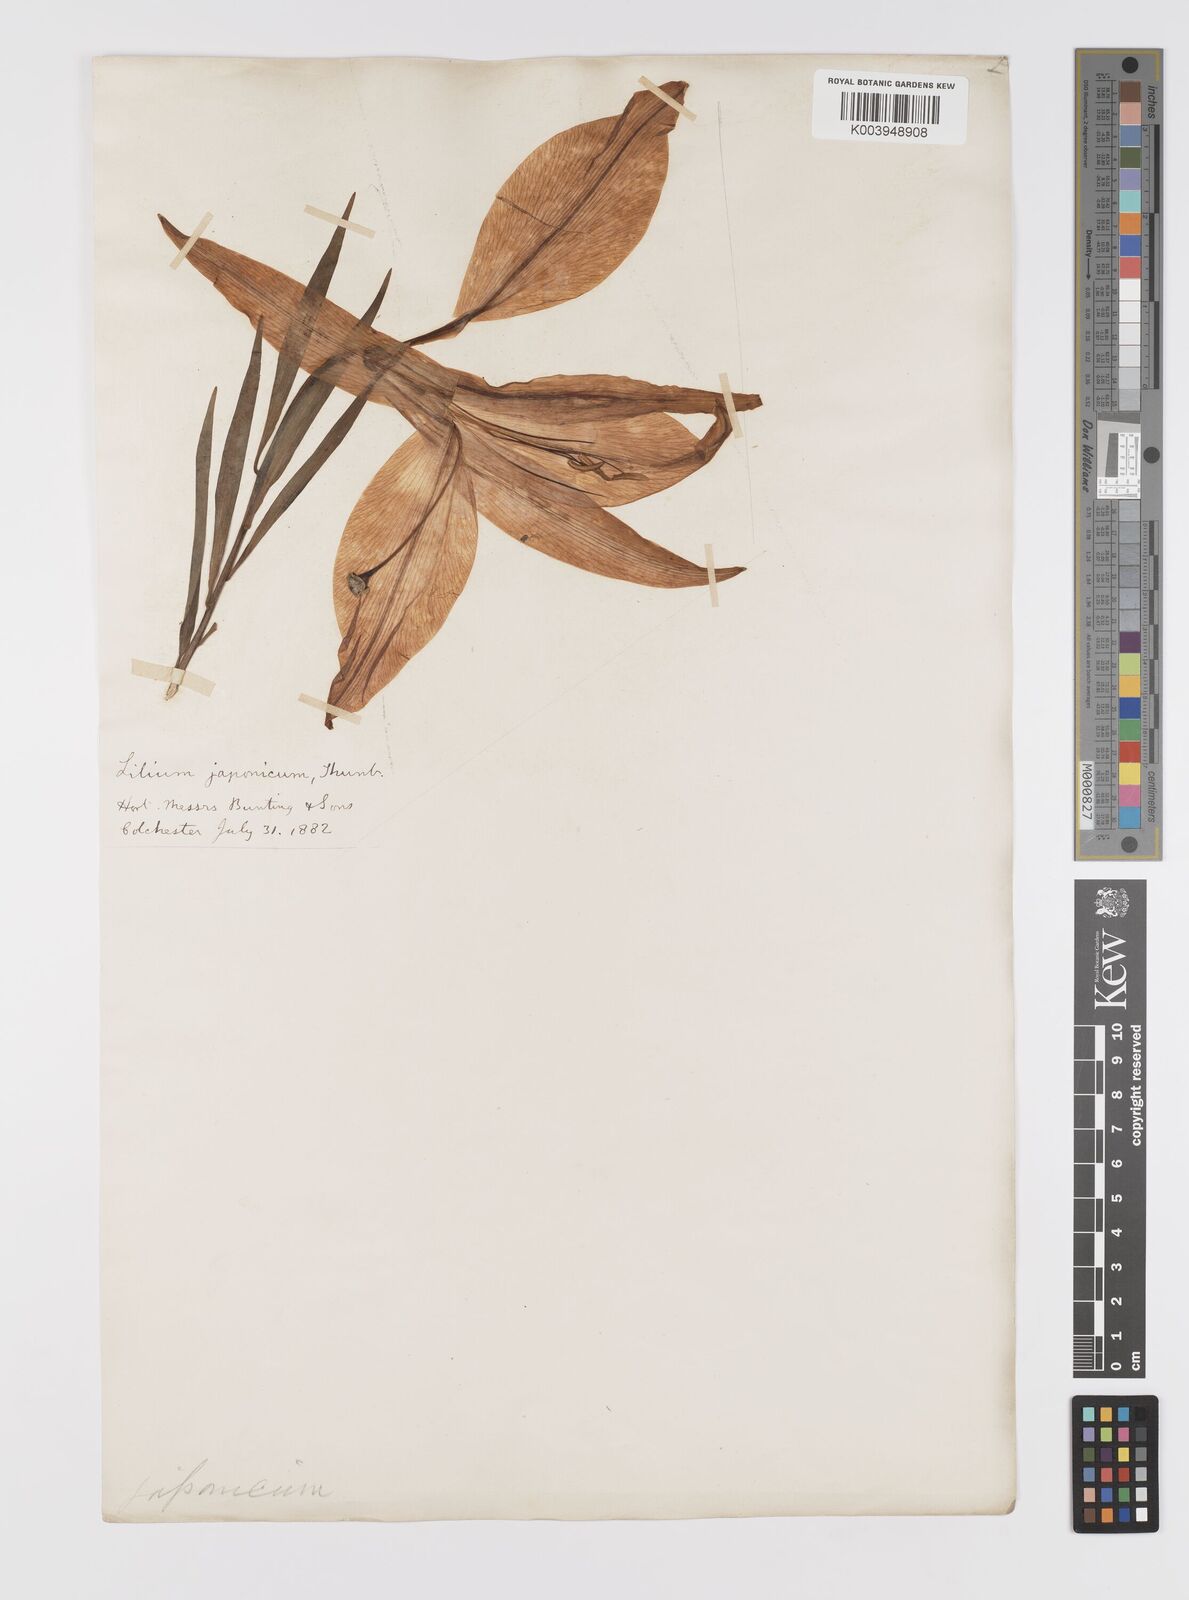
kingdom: Plantae
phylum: Tracheophyta
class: Liliopsida
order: Liliales
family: Liliaceae
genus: Lilium
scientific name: Lilium japonicum
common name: Japanese lily
